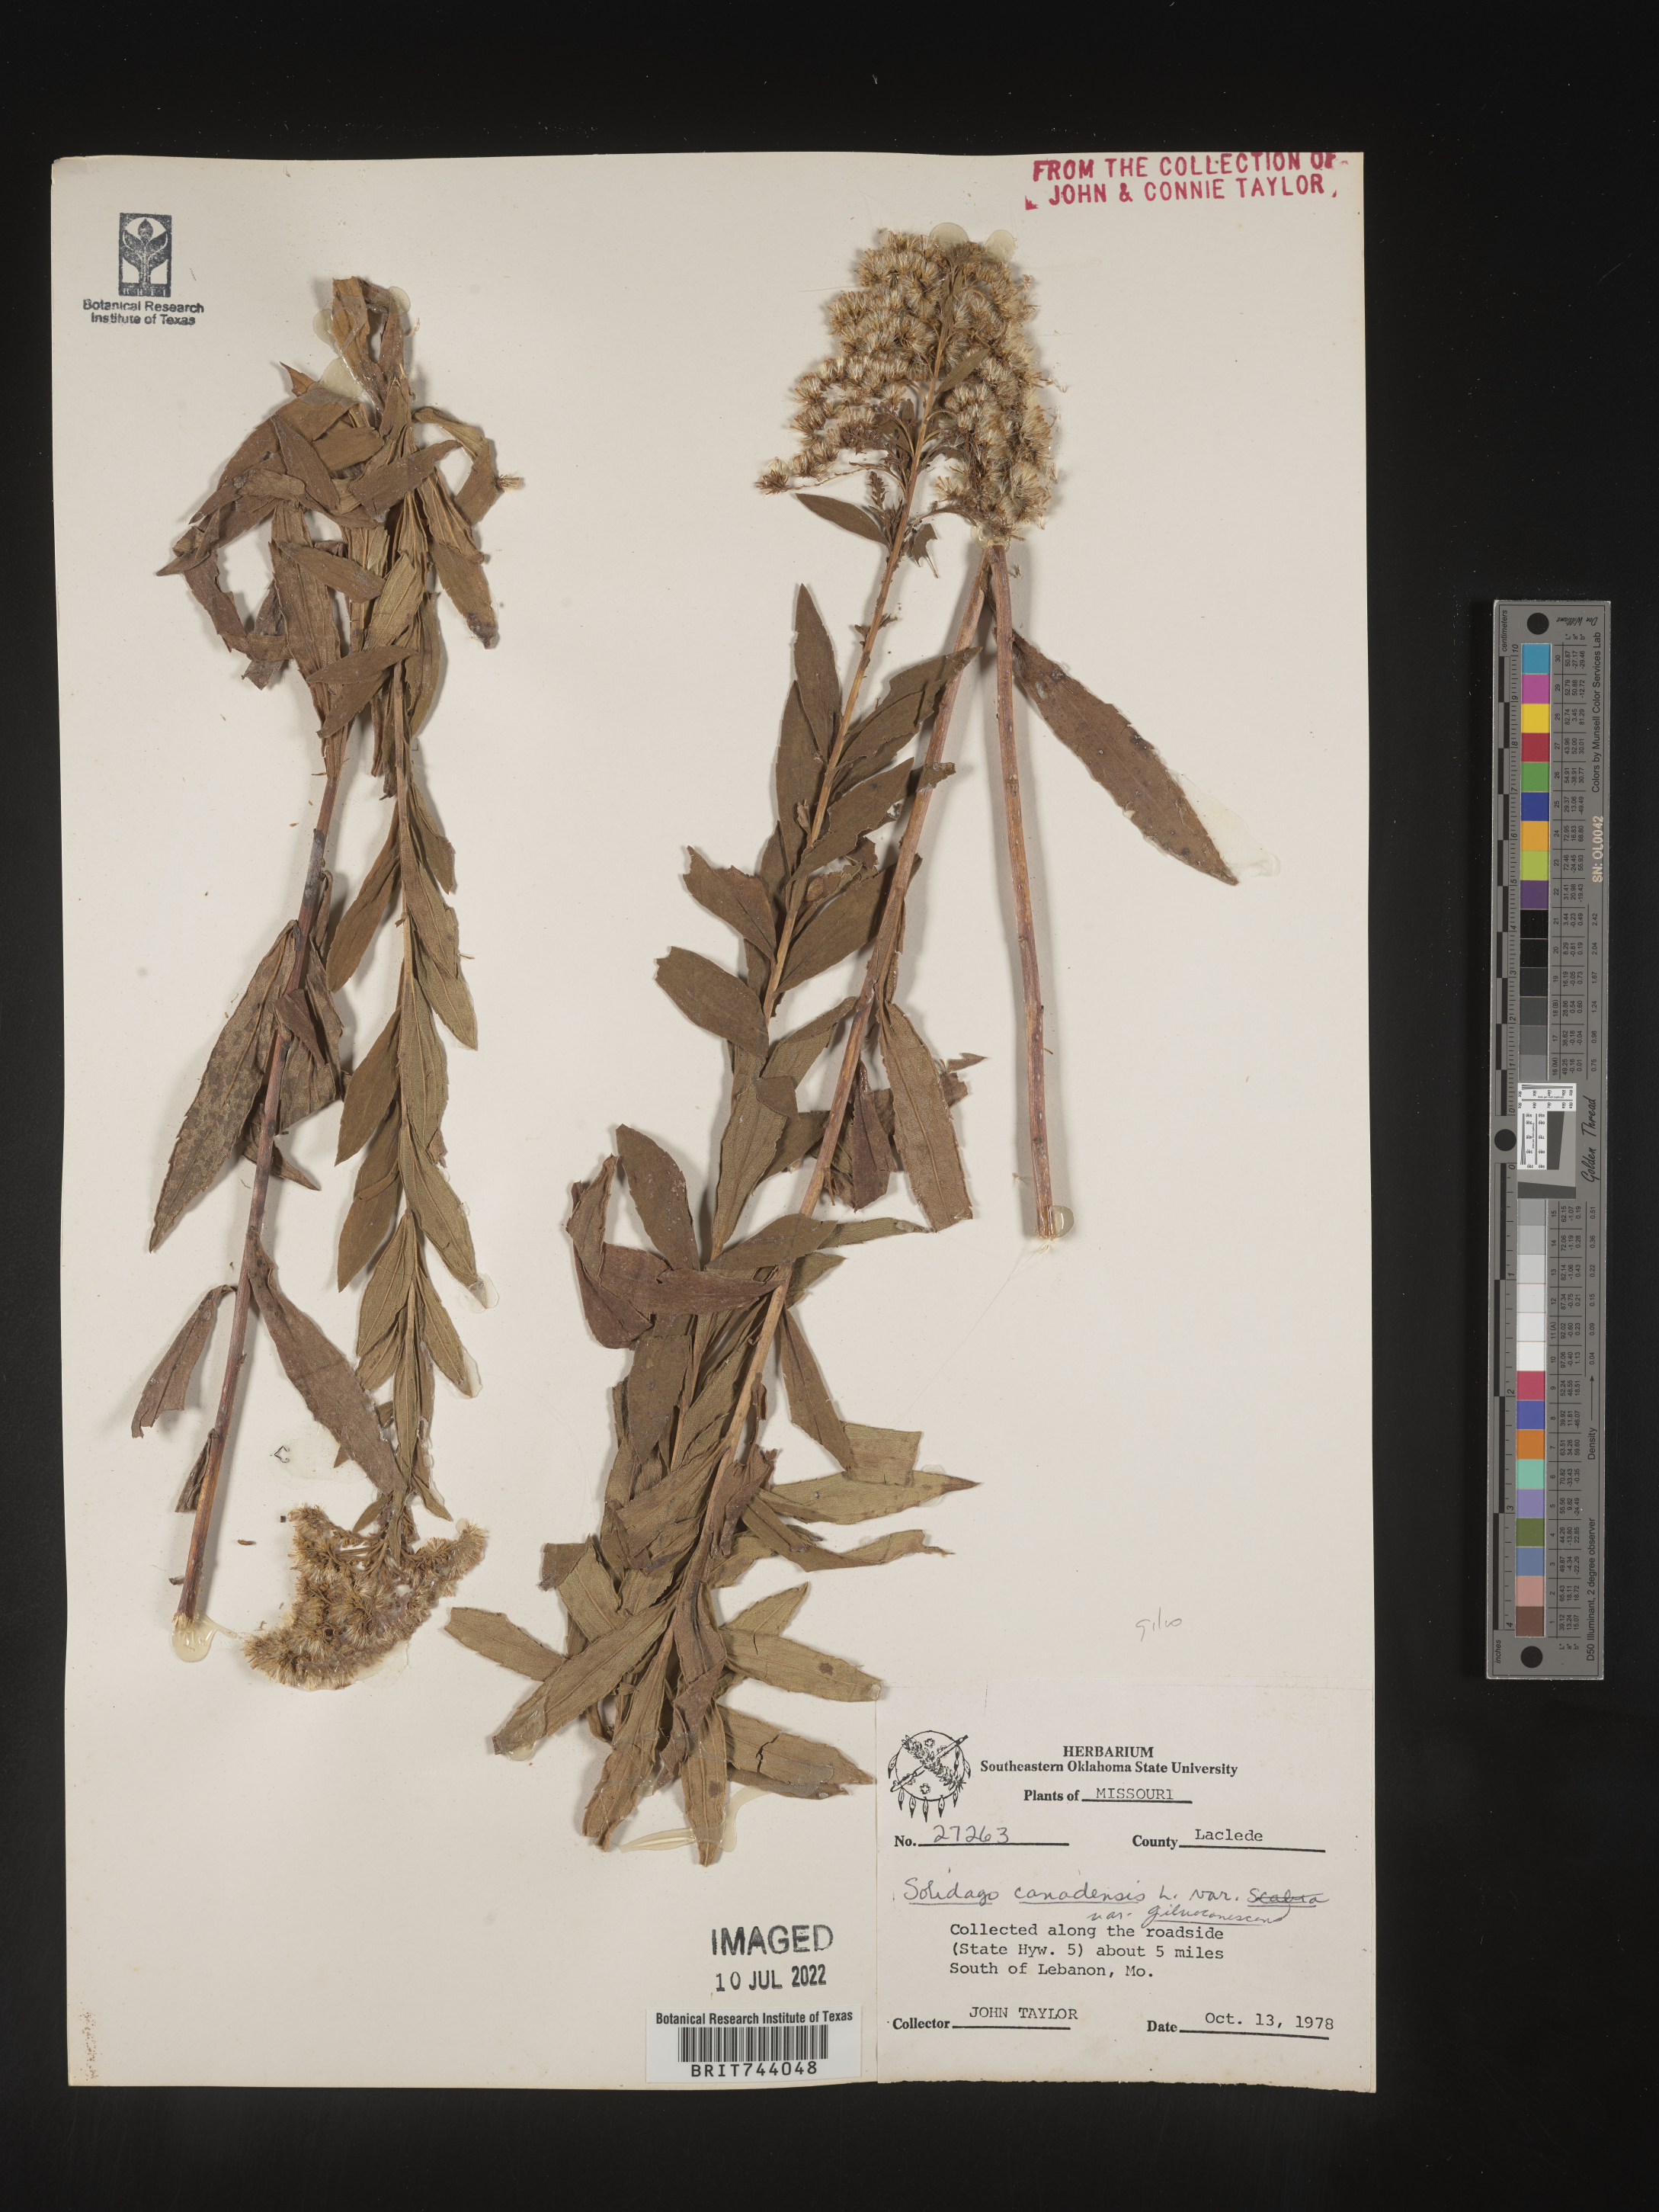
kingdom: Plantae
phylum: Tracheophyta
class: Magnoliopsida
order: Asterales
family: Asteraceae
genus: Solidago
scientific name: Solidago altissima
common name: Late goldenrod
